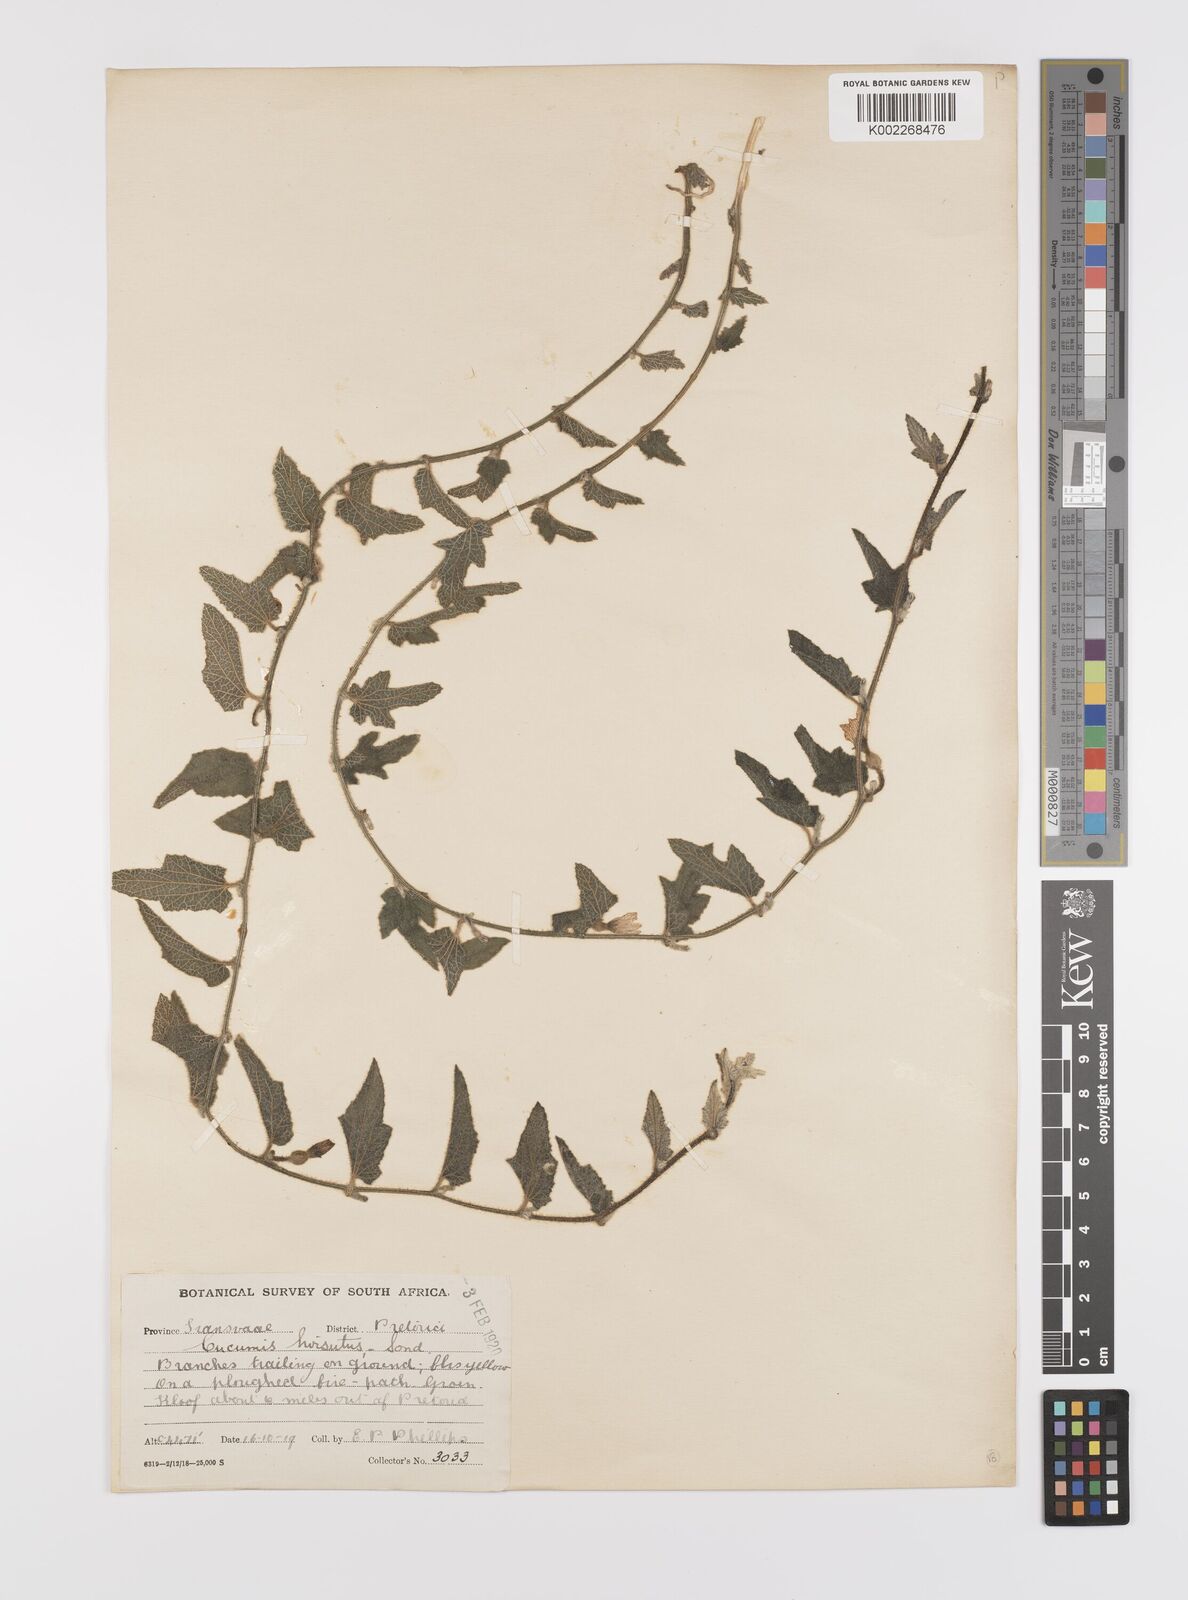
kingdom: Plantae
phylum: Tracheophyta
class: Magnoliopsida
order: Cucurbitales
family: Cucurbitaceae
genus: Cucumis
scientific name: Cucumis hirsutus
